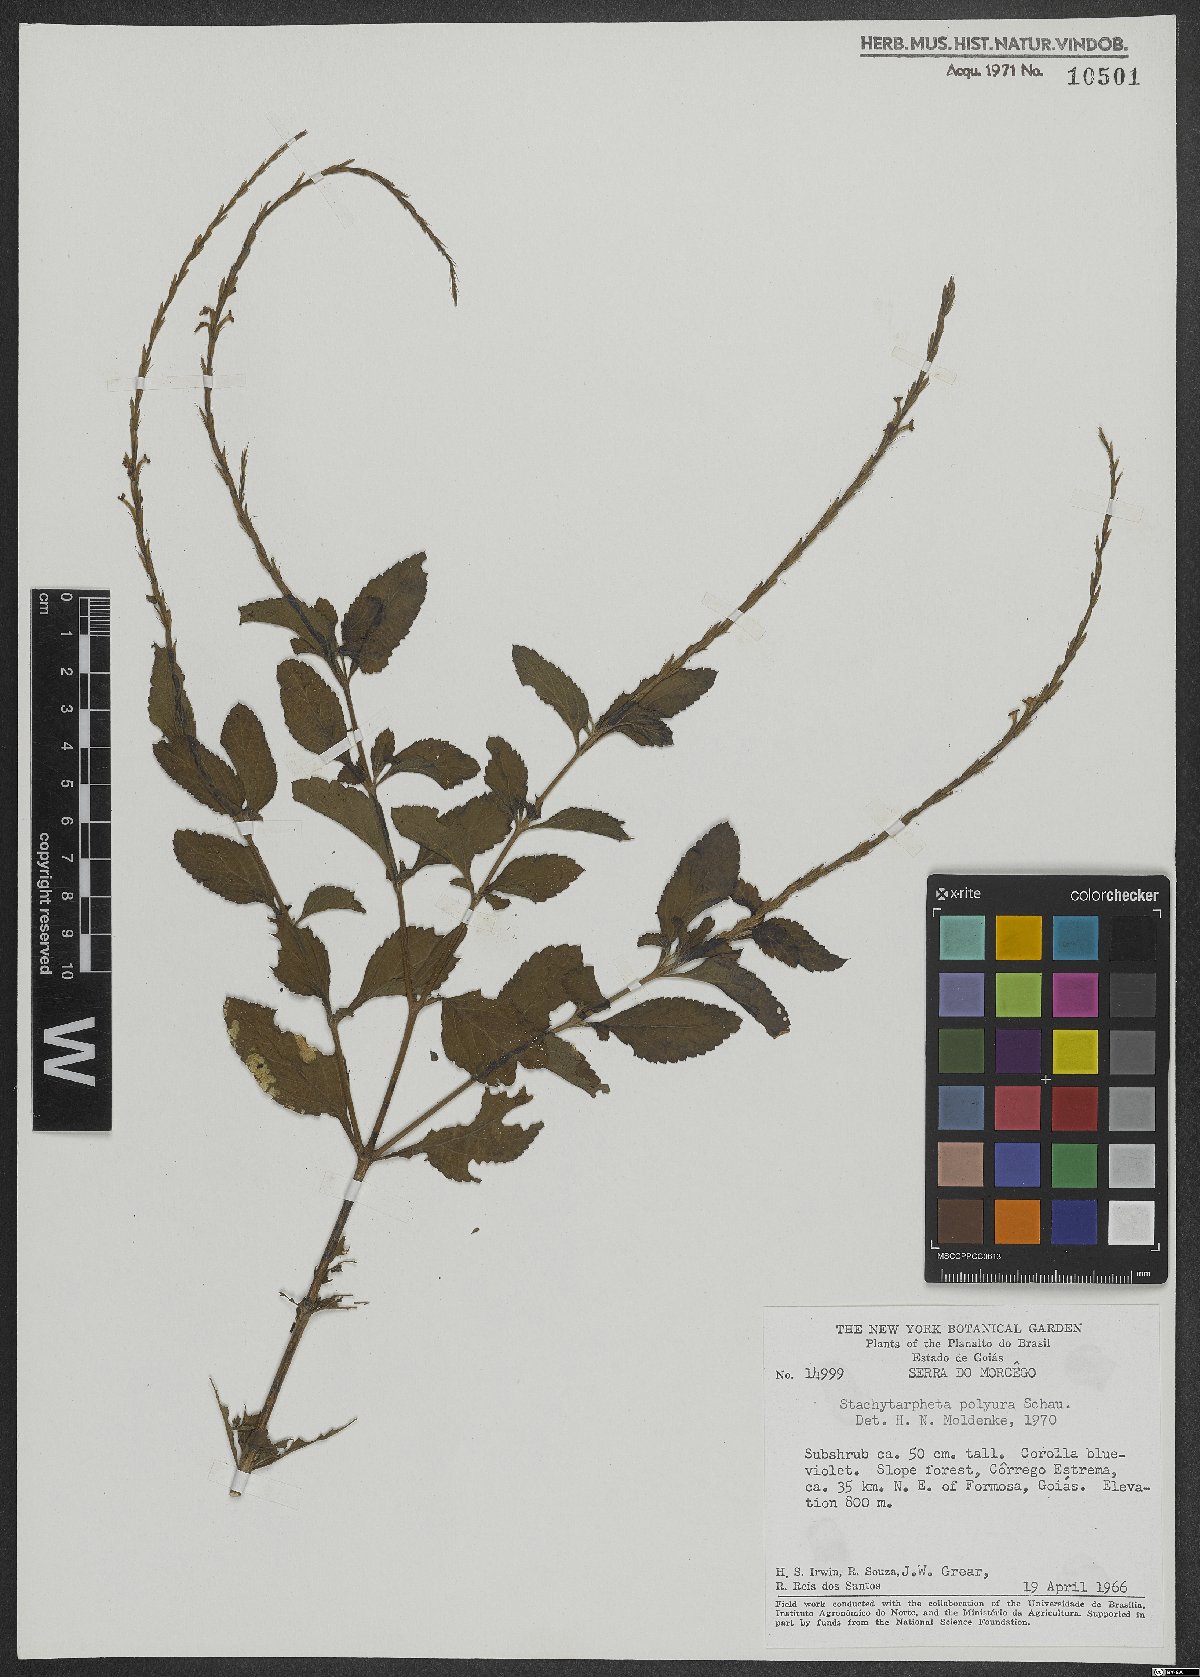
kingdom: Plantae
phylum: Tracheophyta
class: Magnoliopsida
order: Lamiales
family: Verbenaceae
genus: Stachytarpheta
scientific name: Stachytarpheta polyura
